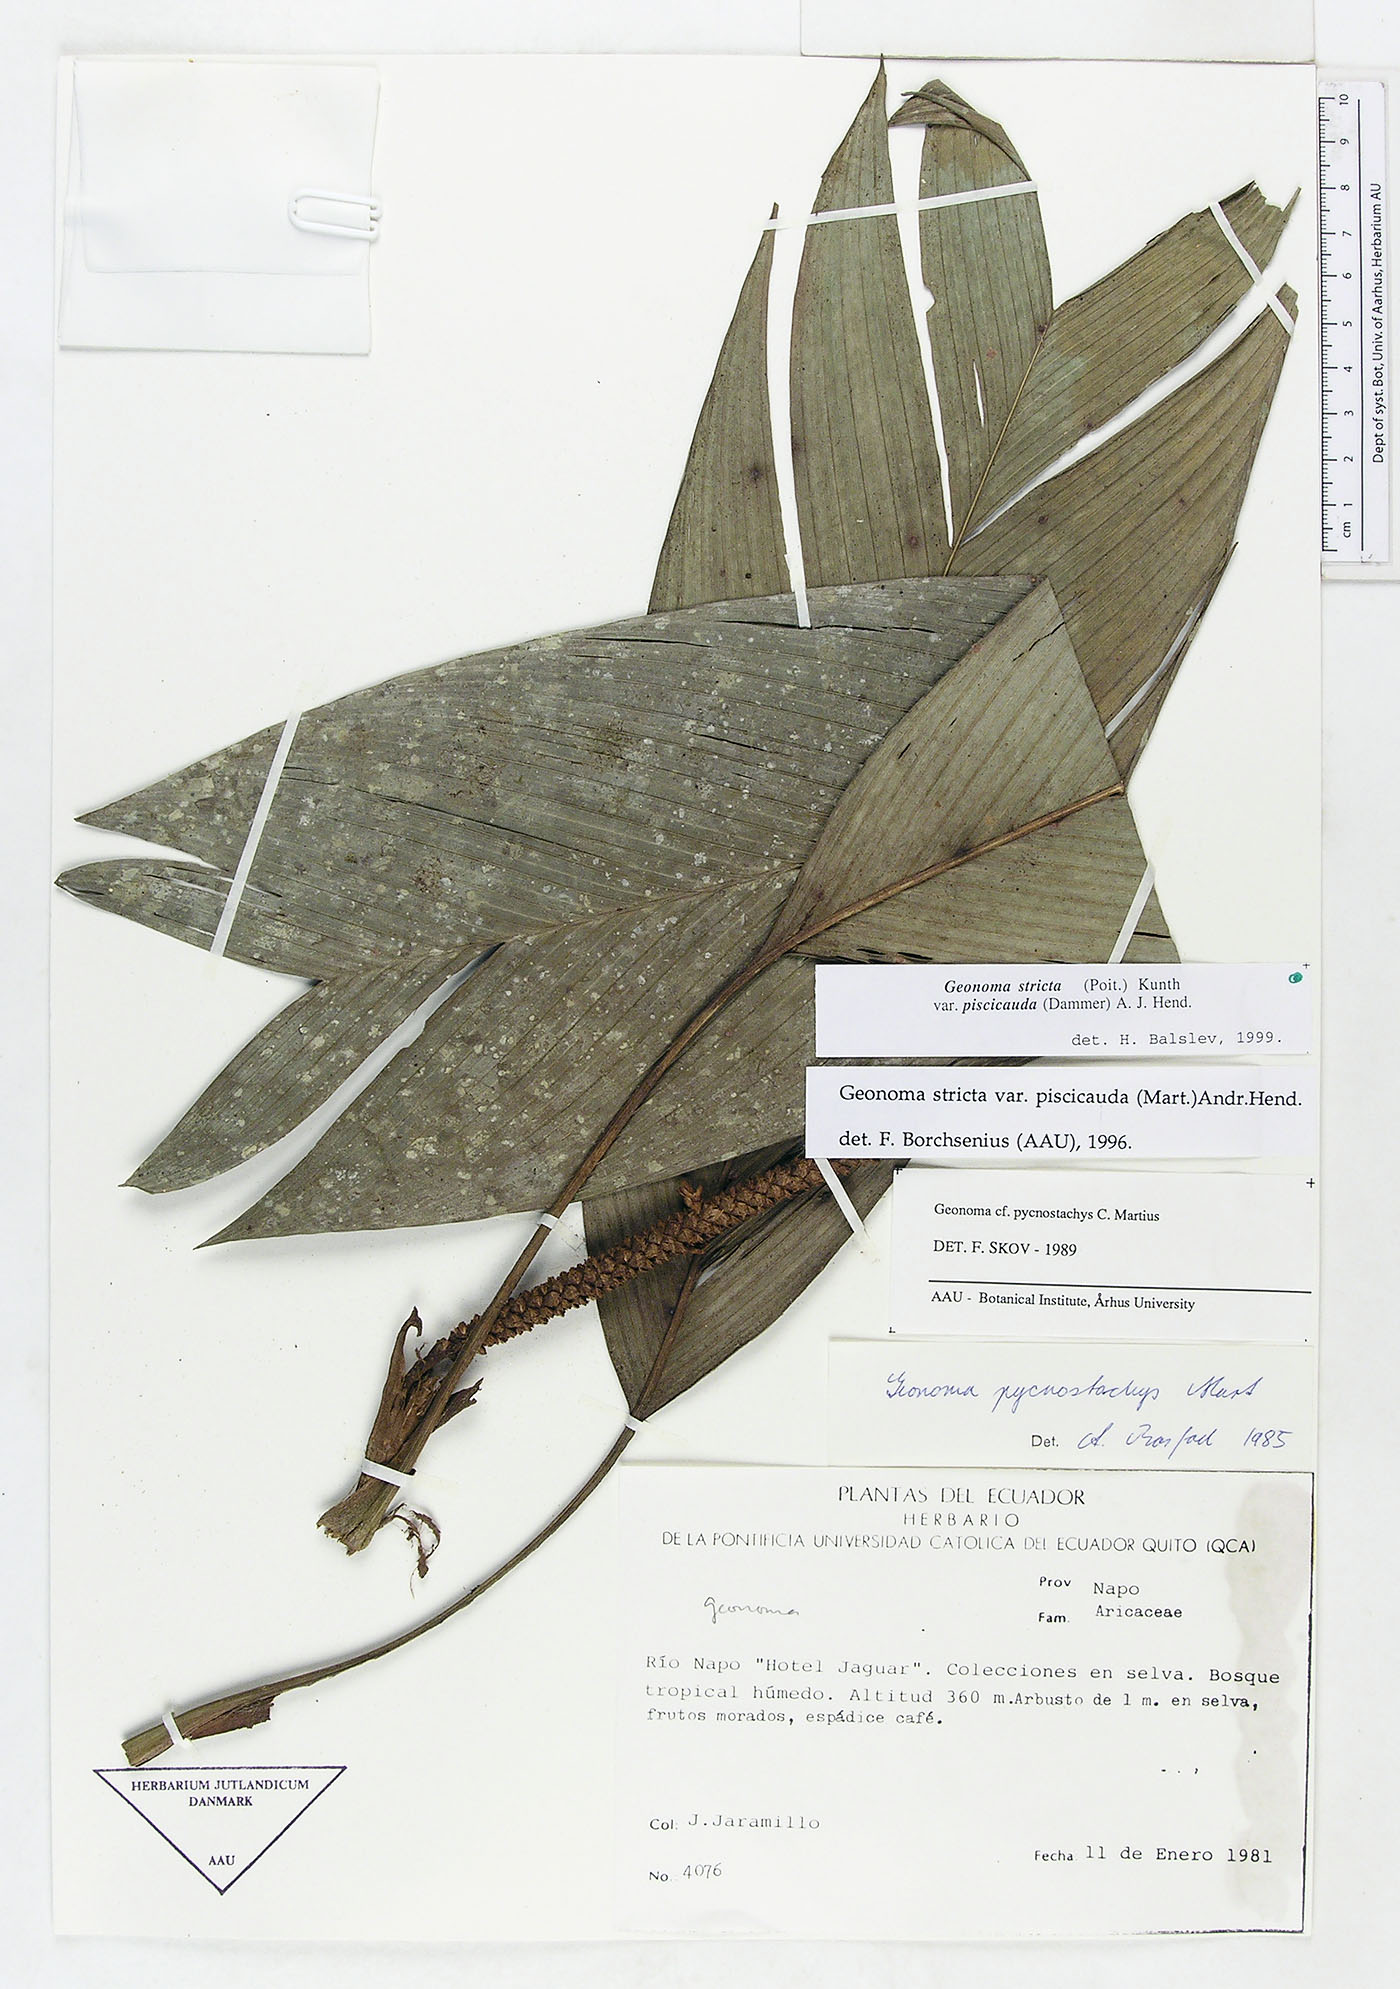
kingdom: Plantae
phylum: Tracheophyta
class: Liliopsida
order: Arecales
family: Arecaceae
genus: Geonoma
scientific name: Geonoma stricta
